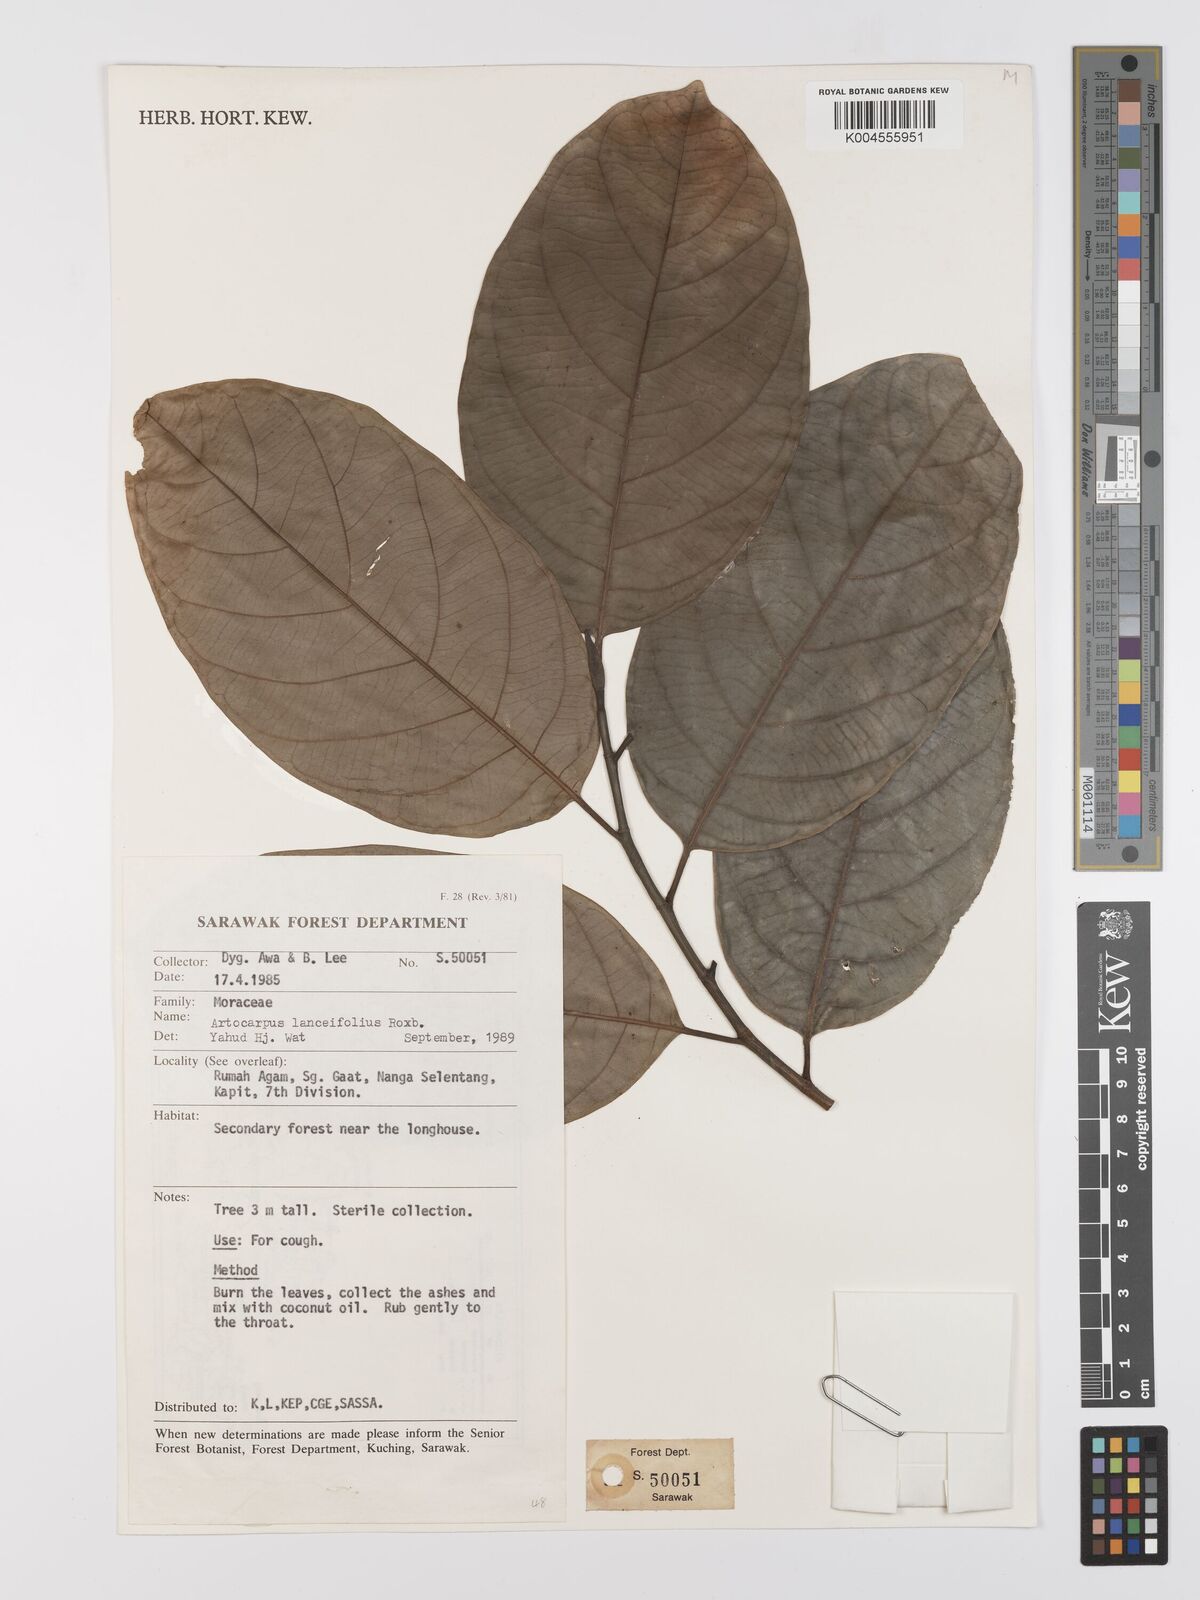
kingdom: Plantae
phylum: Tracheophyta
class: Magnoliopsida
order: Rosales
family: Moraceae
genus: Artocarpus
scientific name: Artocarpus lanceifolius
